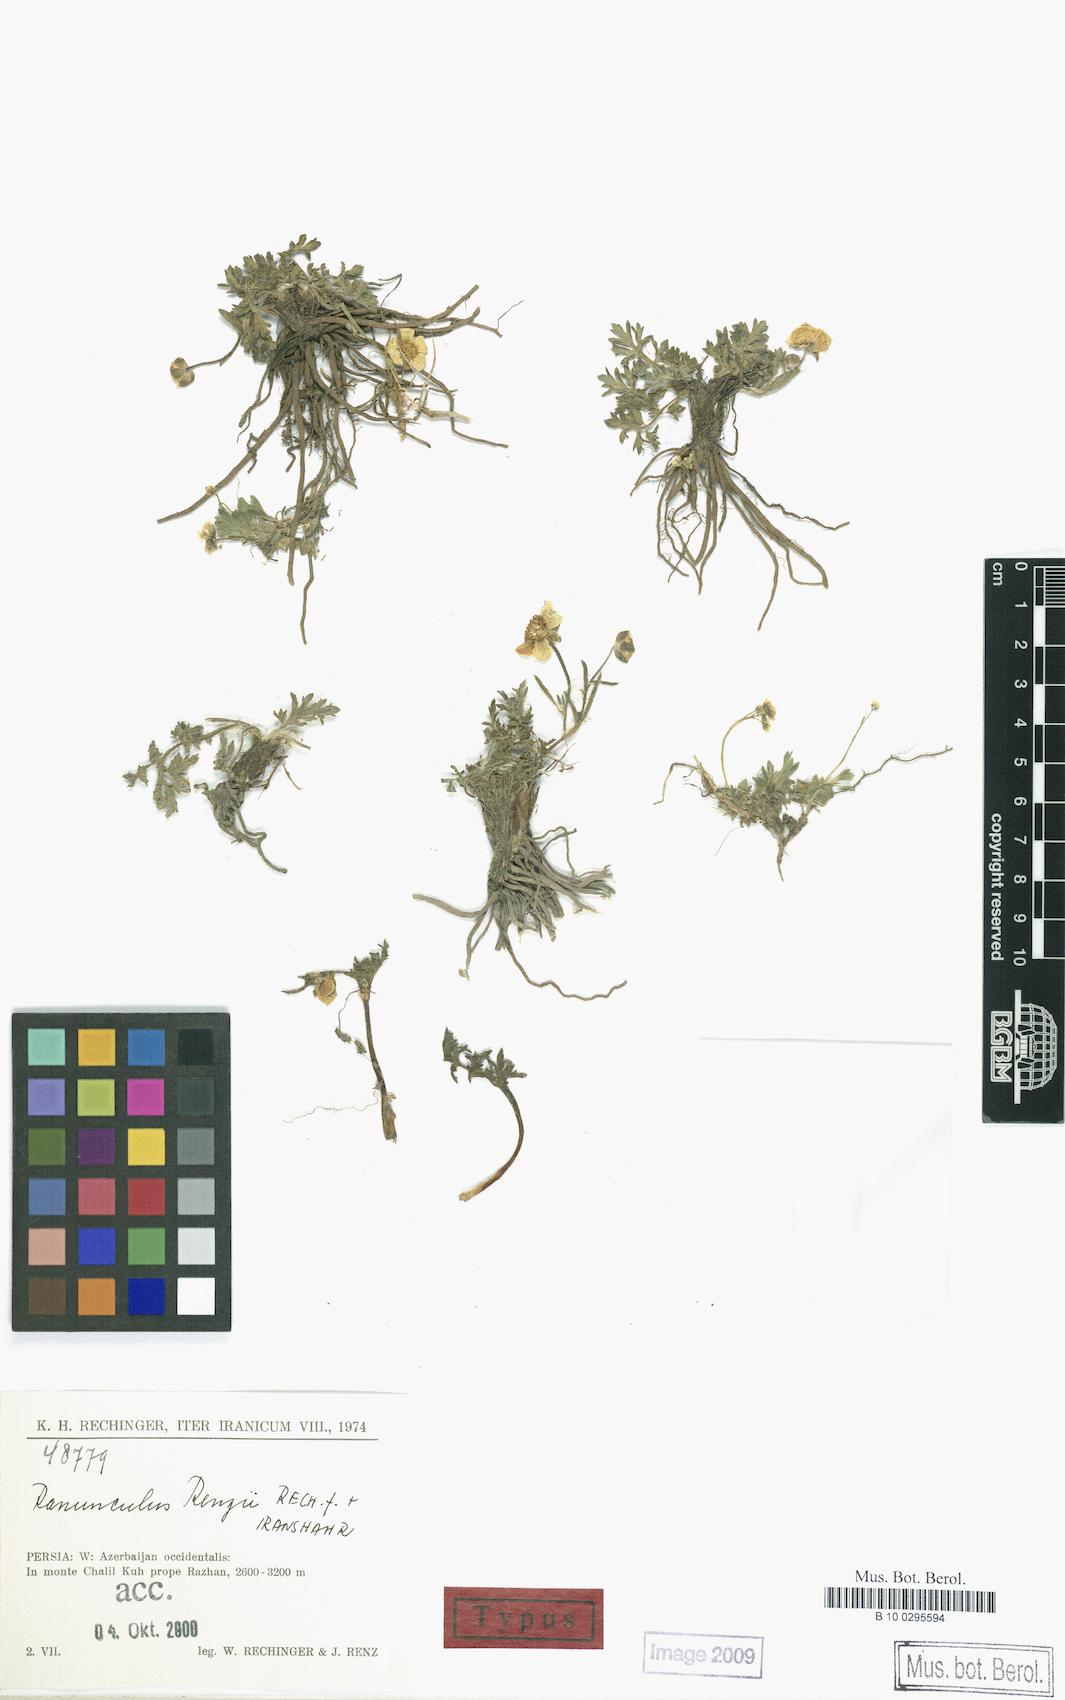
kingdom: Plantae
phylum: Tracheophyta
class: Magnoliopsida
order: Ranunculales
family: Ranunculaceae
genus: Ranunculus
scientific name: Ranunculus renzii
